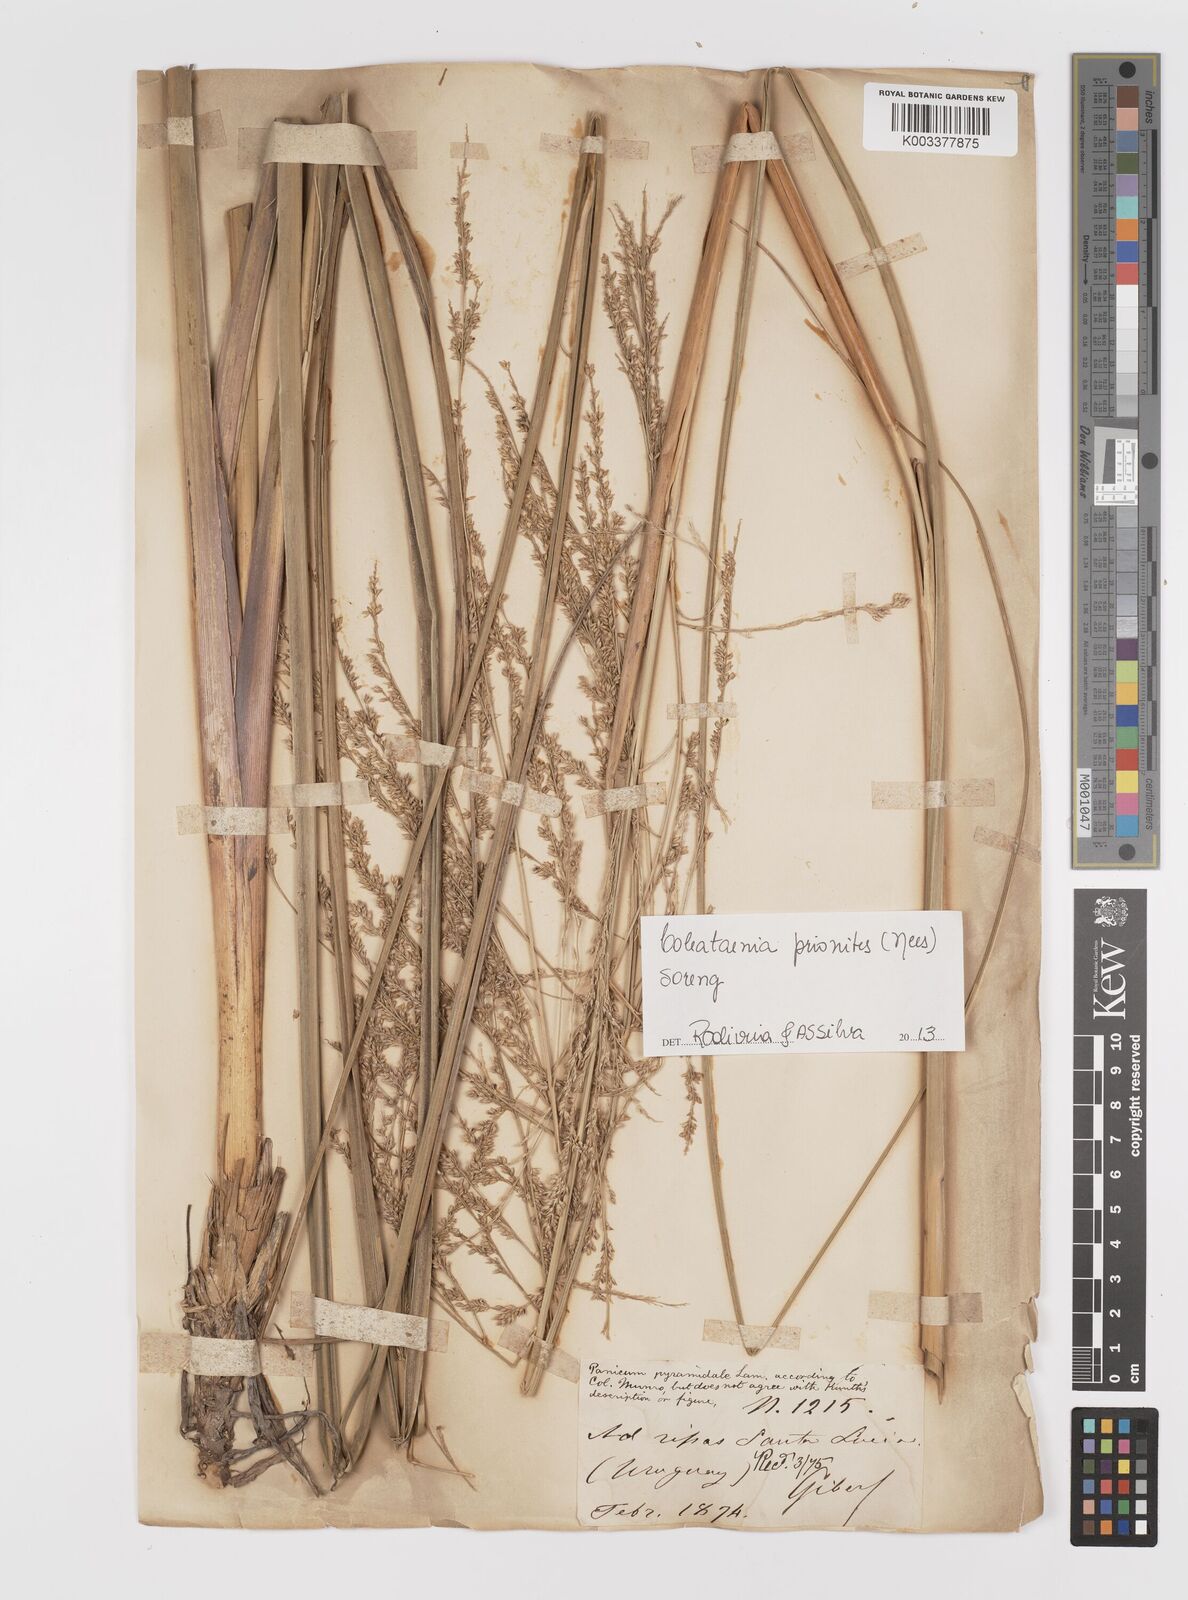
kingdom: Plantae
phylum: Tracheophyta
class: Liliopsida
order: Poales
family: Poaceae
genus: Coleataenia
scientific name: Coleataenia prionitis
